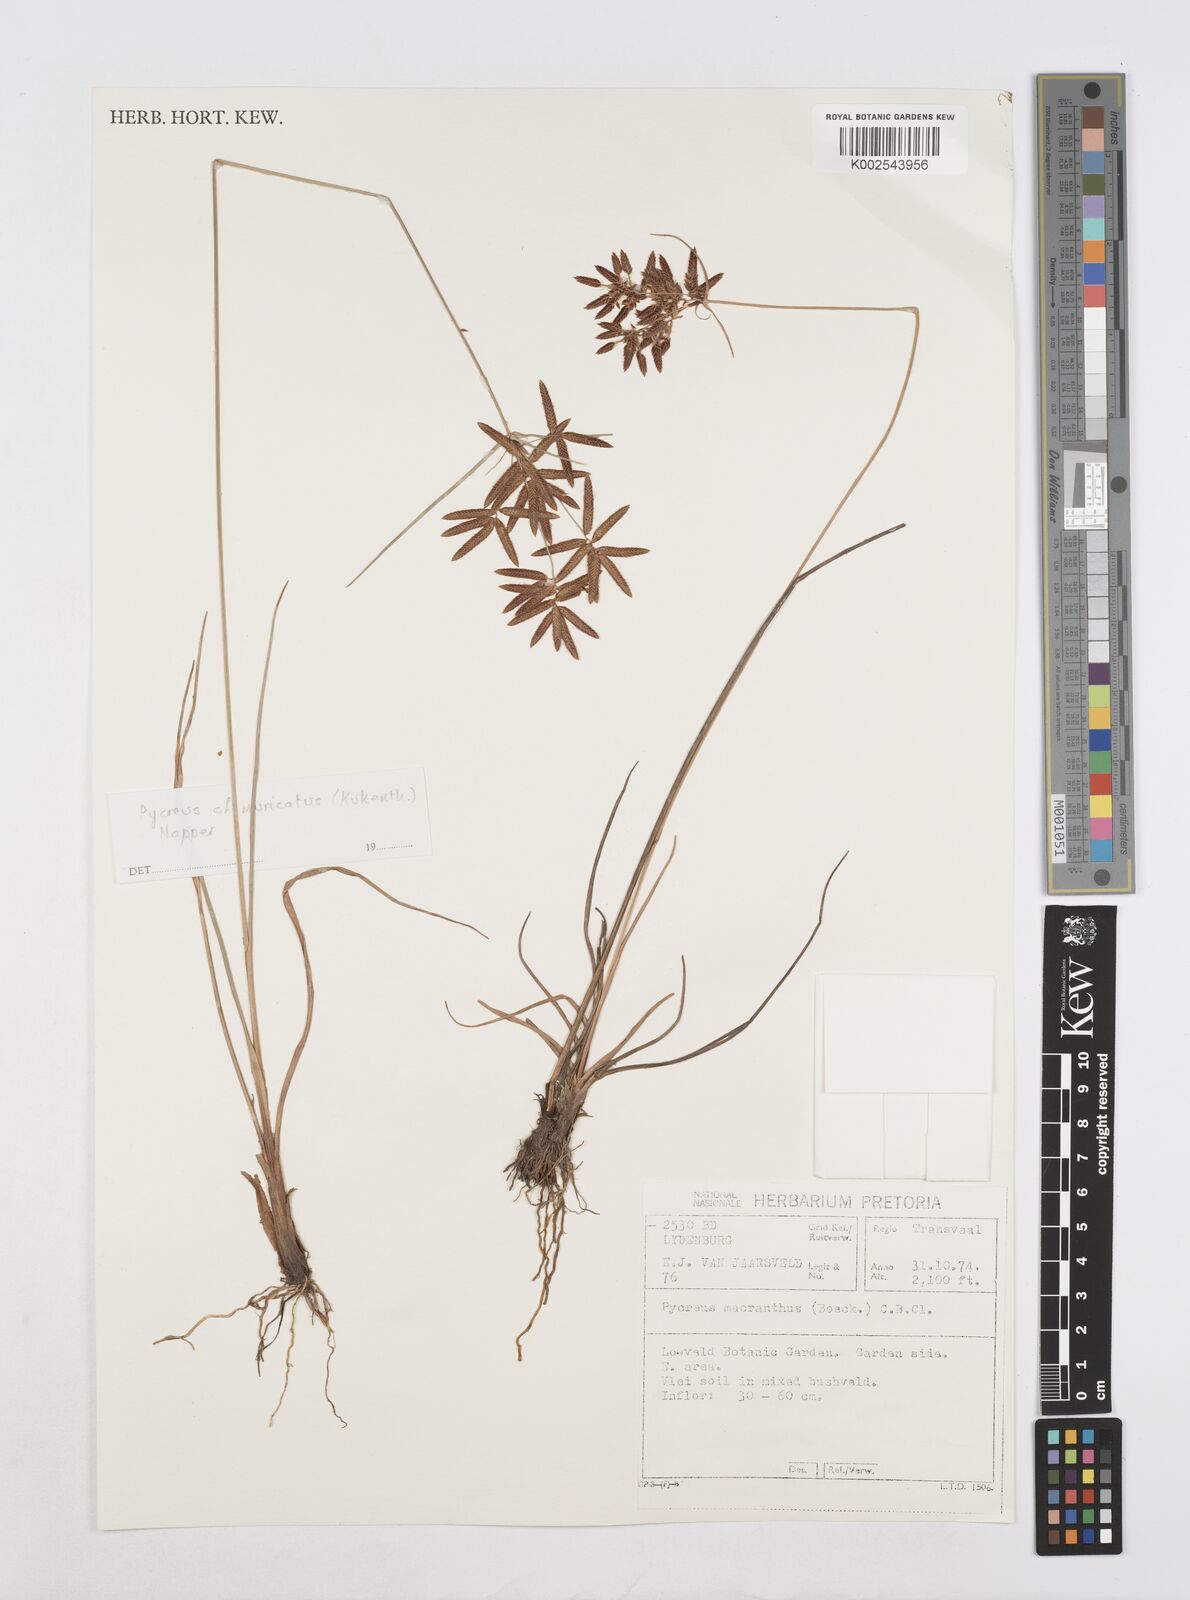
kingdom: Plantae
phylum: Tracheophyta
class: Liliopsida
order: Poales
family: Cyperaceae
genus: Cyperus
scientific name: Cyperus
